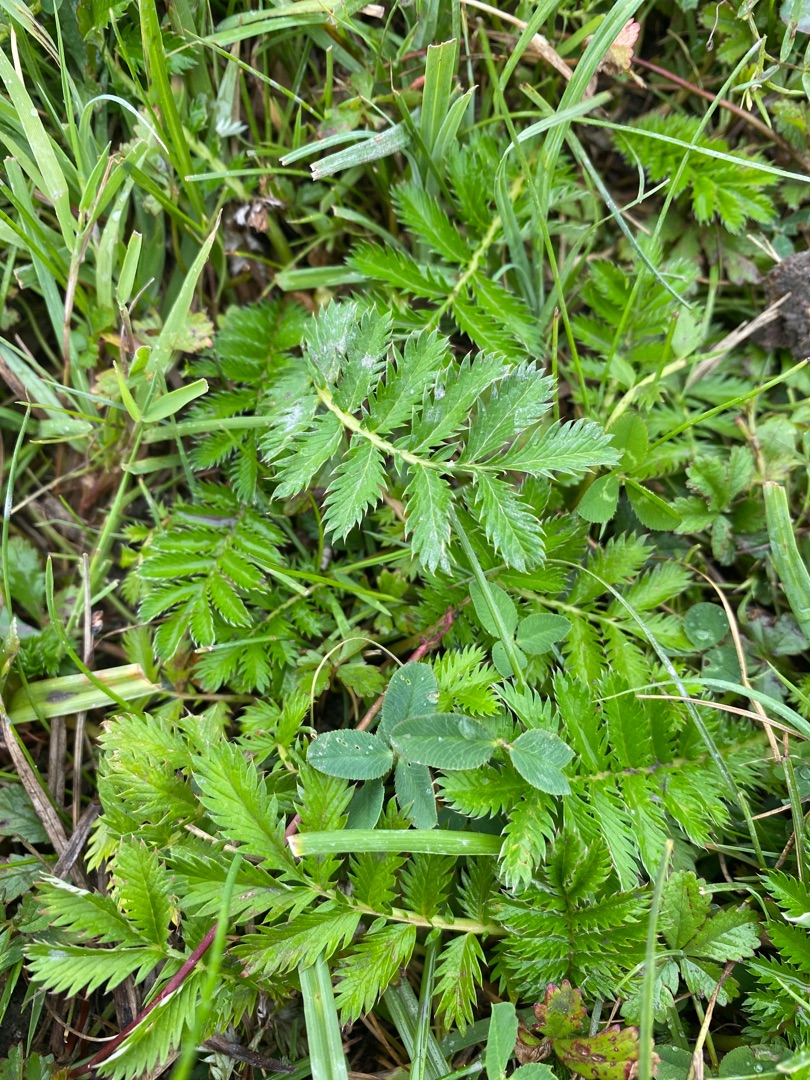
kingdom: Plantae
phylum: Tracheophyta
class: Magnoliopsida
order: Rosales
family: Rosaceae
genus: Argentina
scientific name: Argentina anserina
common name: Gåsepotentil
